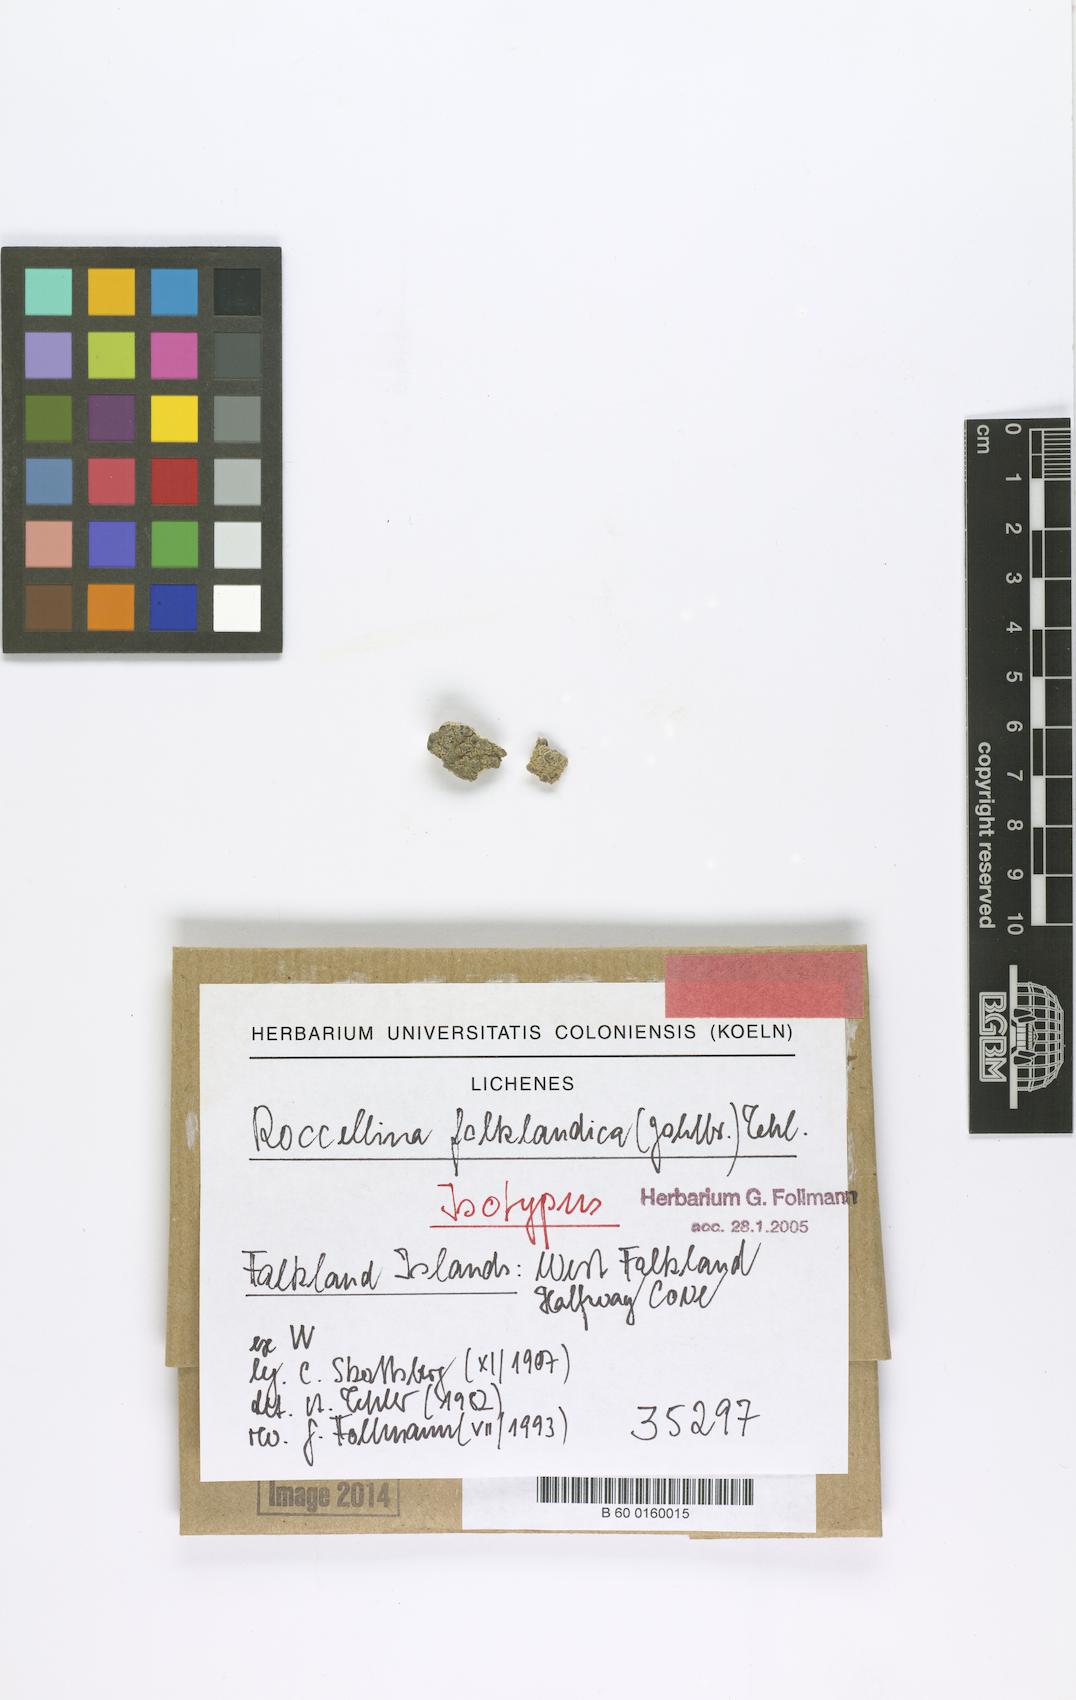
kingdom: Fungi
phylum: Ascomycota
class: Arthoniomycetes
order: Arthoniales
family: Roccellaceae
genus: Roccellina
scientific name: Roccellina falklandica
